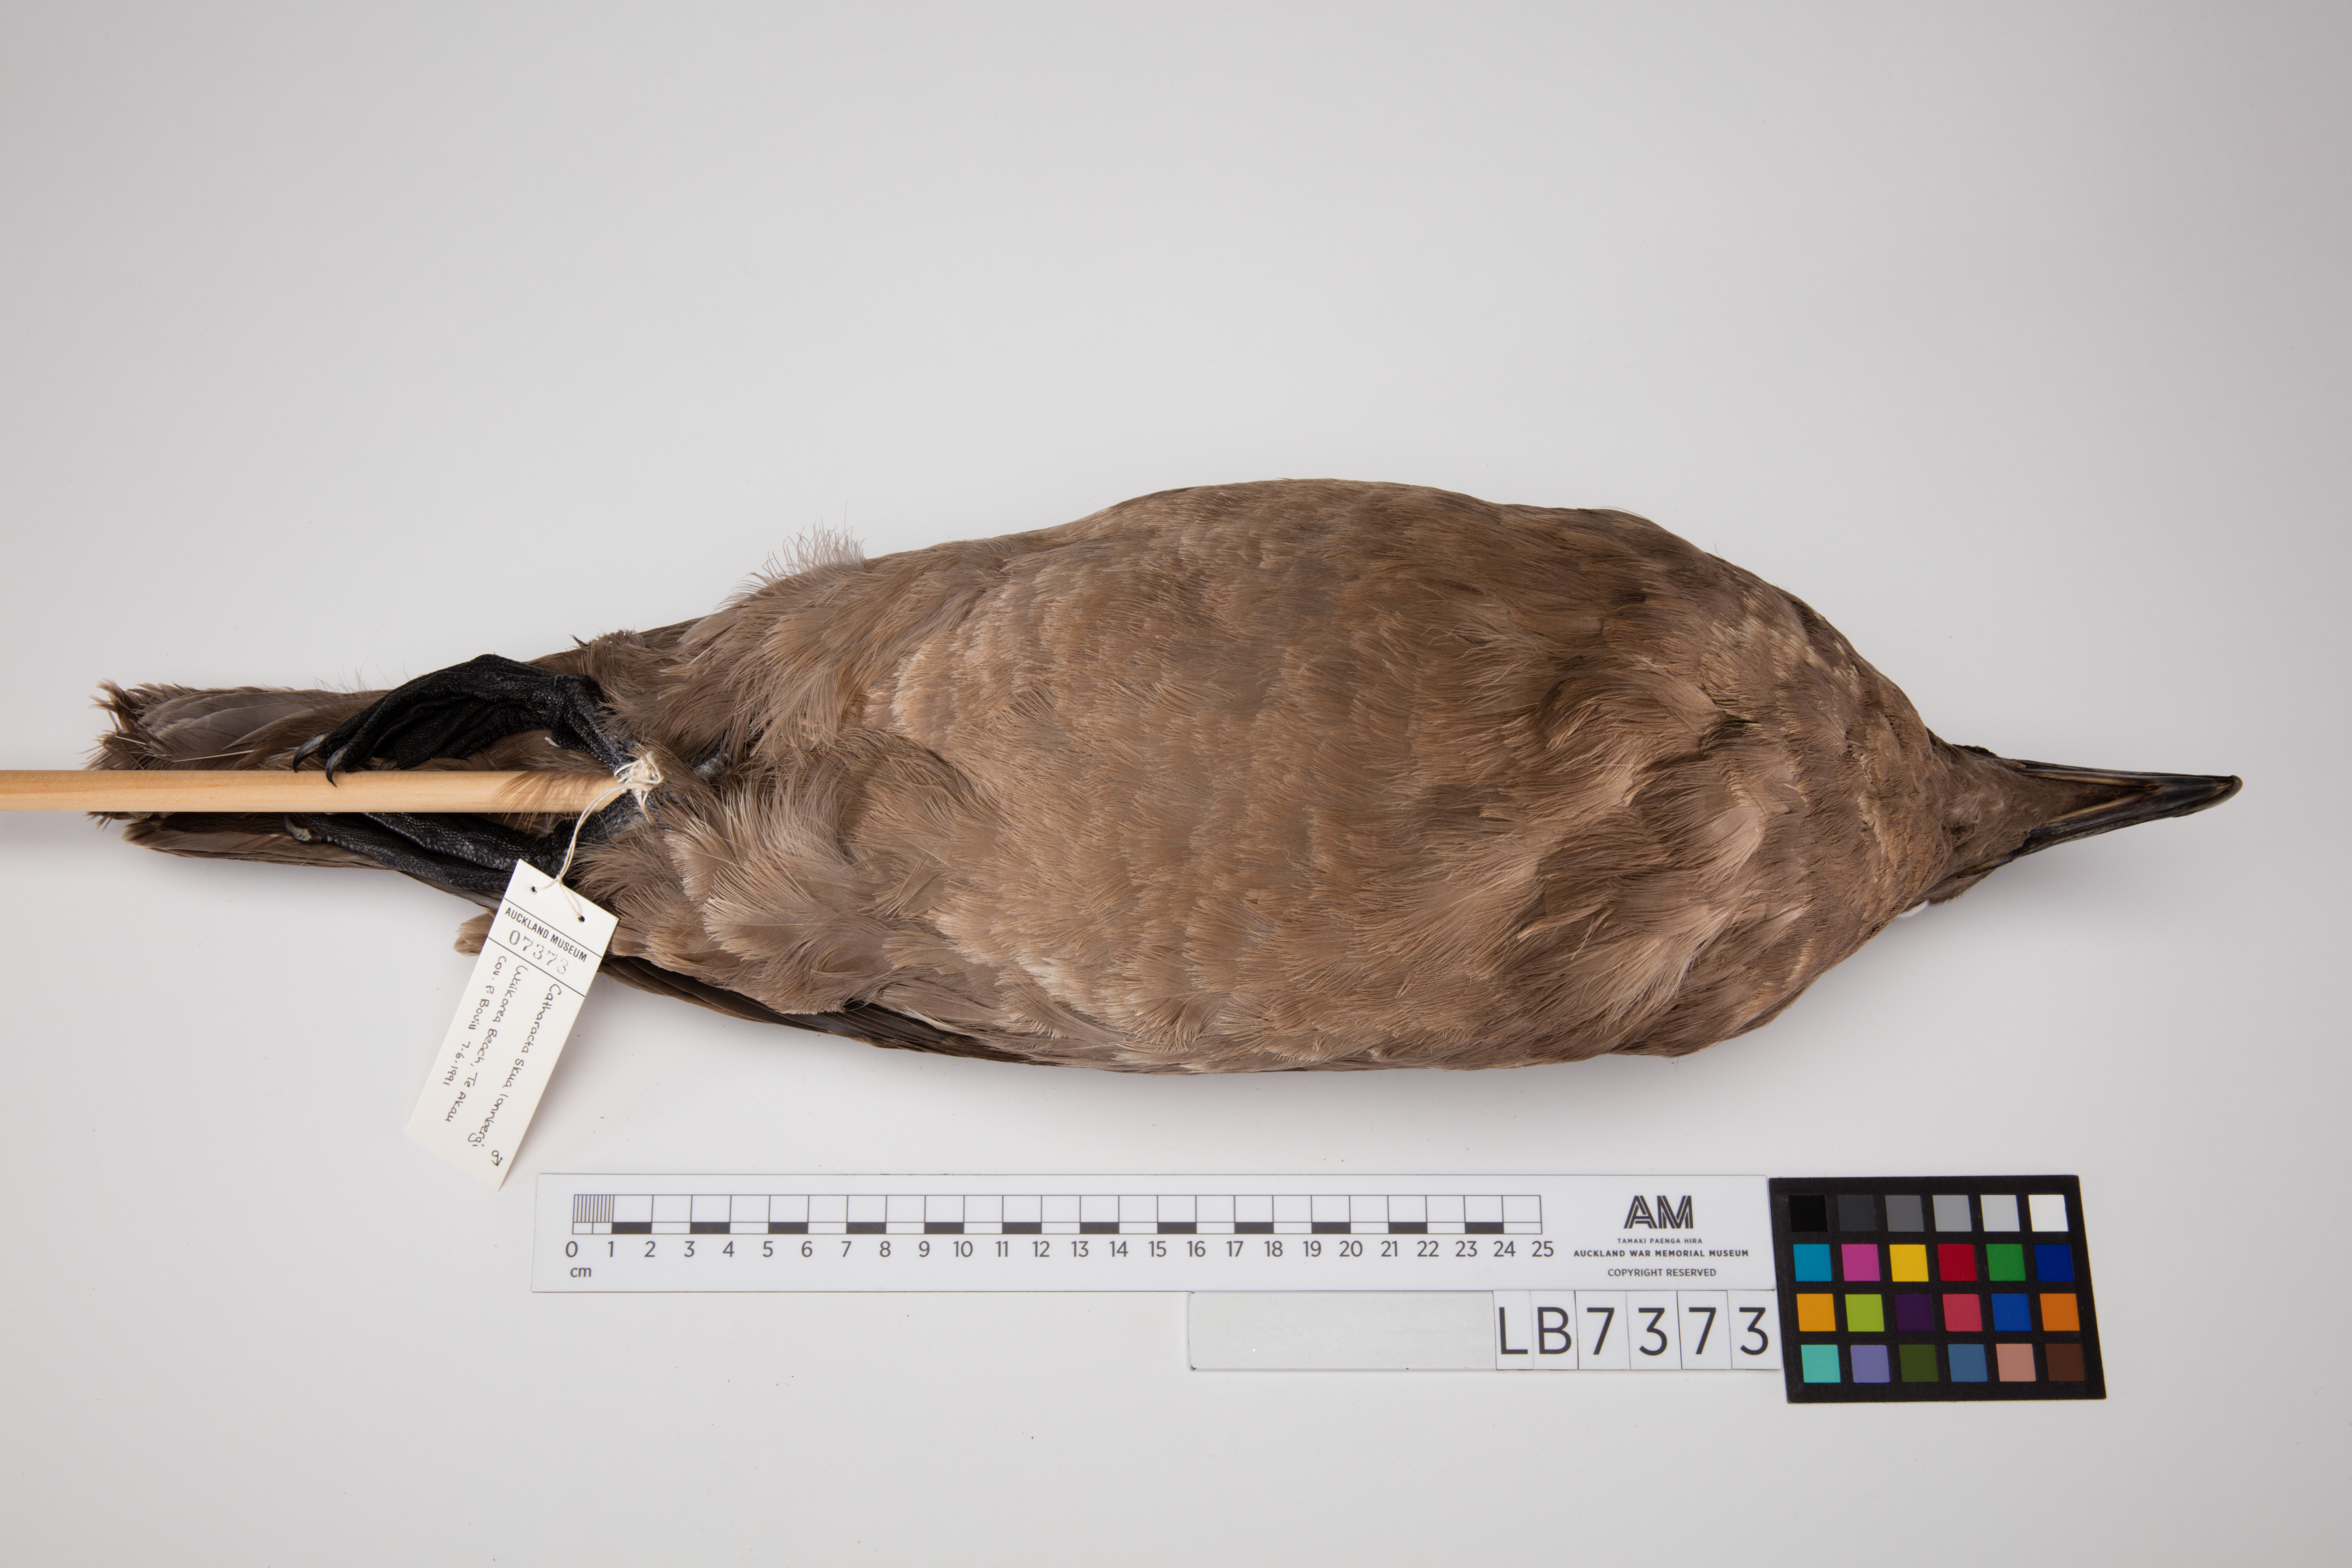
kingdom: Animalia
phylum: Chordata
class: Aves
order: Charadriiformes
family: Stercorariidae
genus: Stercorarius
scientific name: Stercorarius antarcticus
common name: Brown skua
